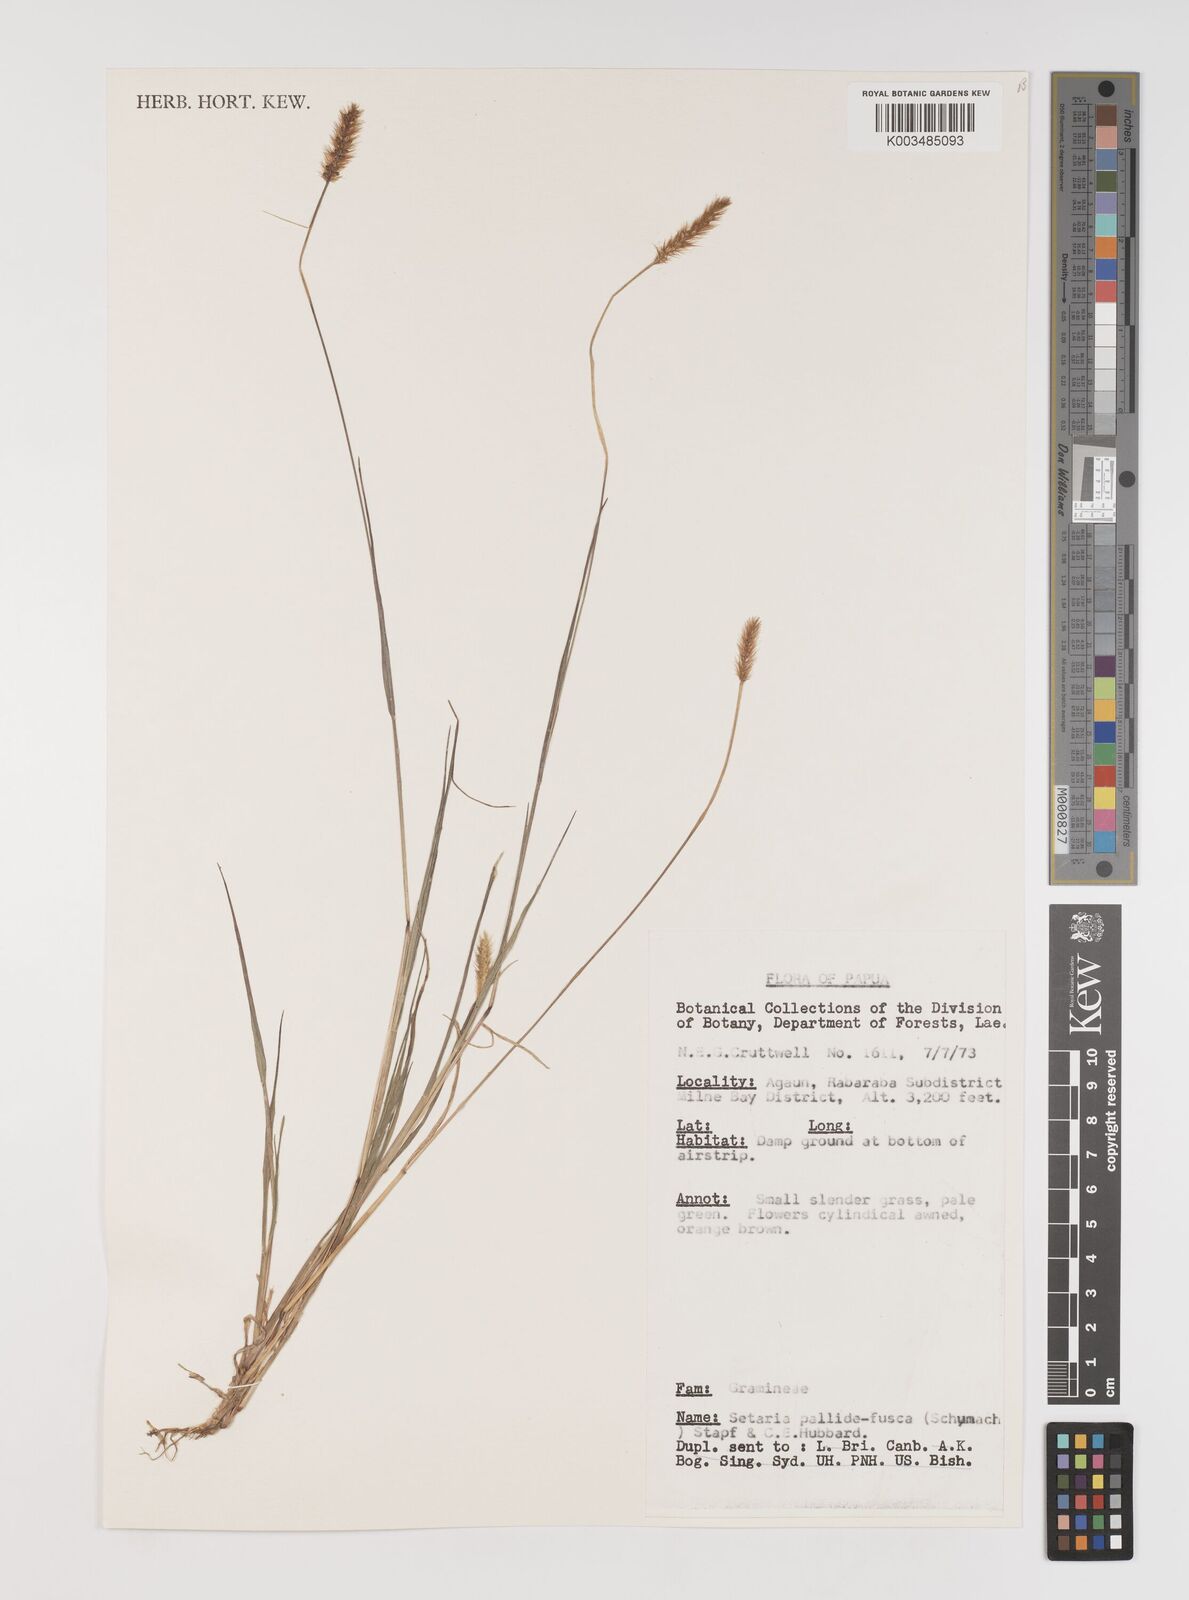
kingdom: Plantae
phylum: Tracheophyta
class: Liliopsida
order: Poales
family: Poaceae
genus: Setaria
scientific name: Setaria pumila
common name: Yellow bristle-grass
